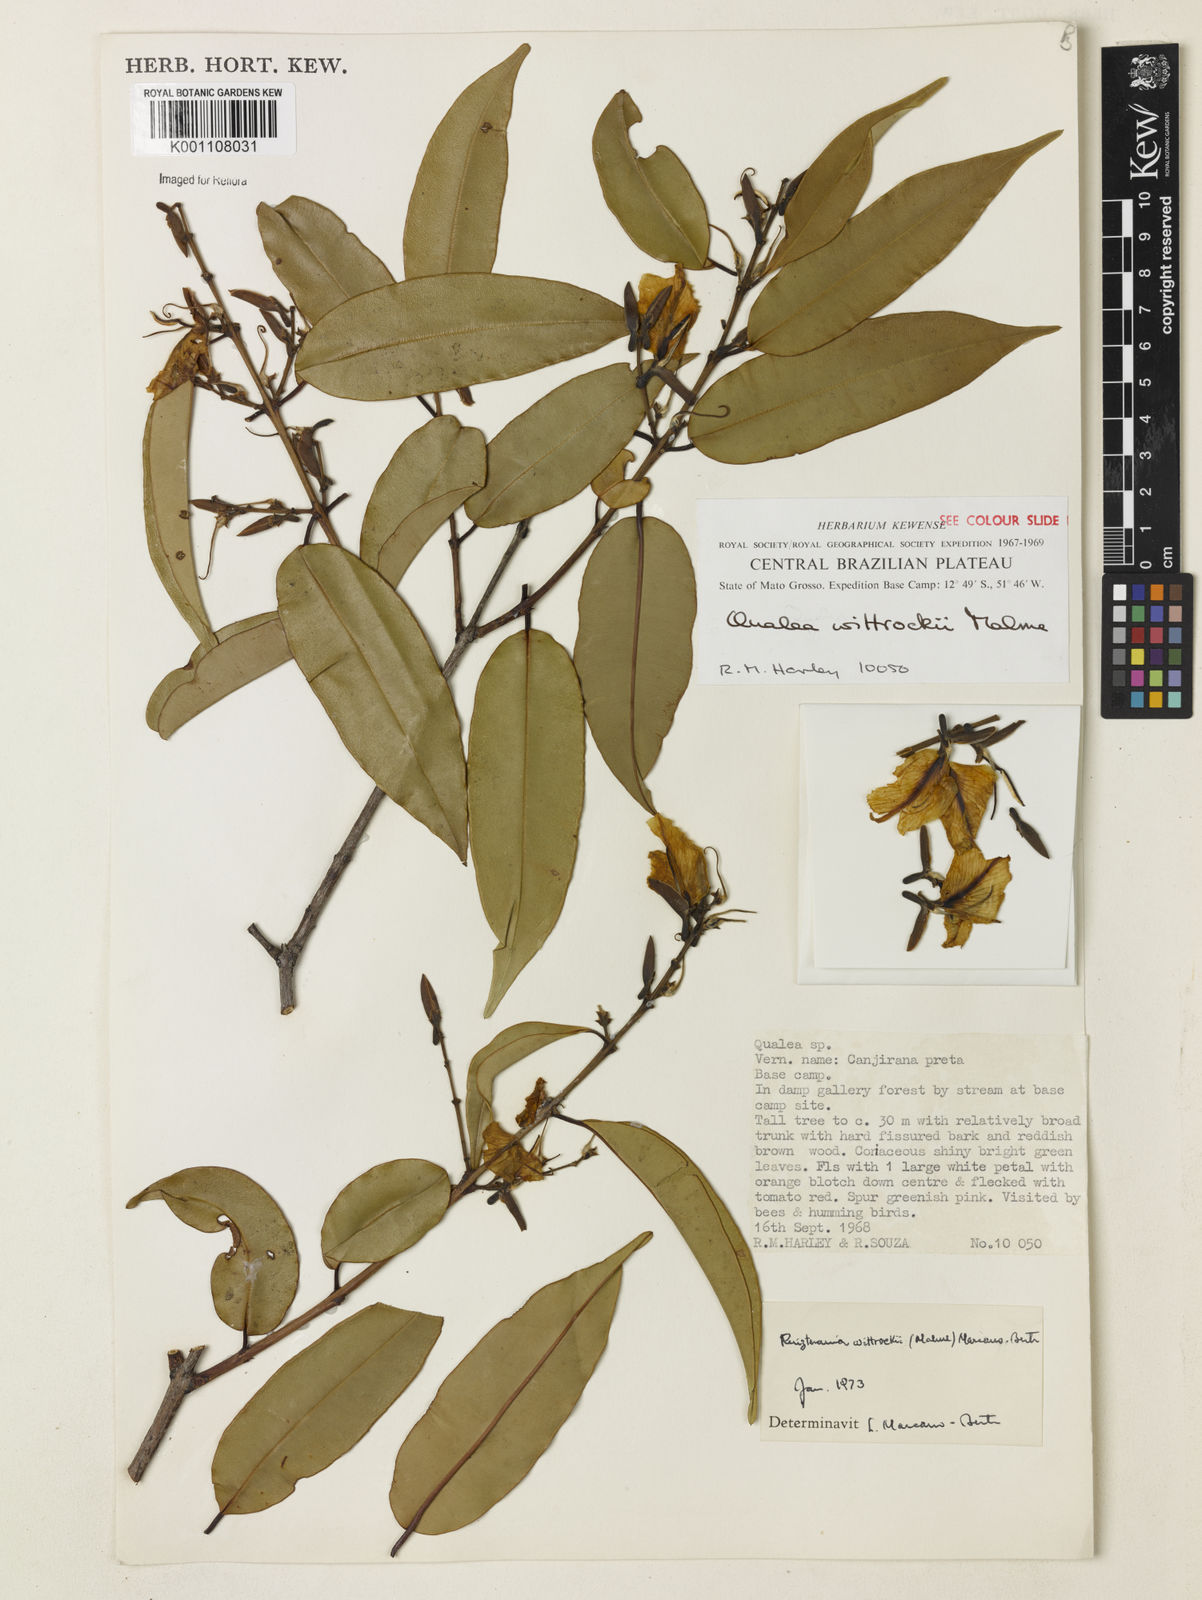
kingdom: Plantae
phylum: Tracheophyta
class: Magnoliopsida
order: Myrtales
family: Vochysiaceae
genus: Ruizterania
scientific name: Ruizterania wittrockii
